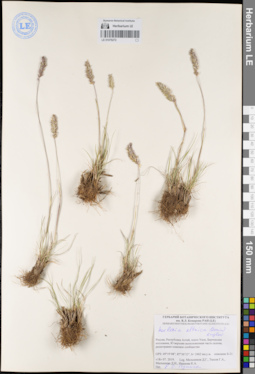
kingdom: Plantae
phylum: Tracheophyta
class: Liliopsida
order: Poales
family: Poaceae
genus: Koeleria
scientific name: Koeleria altaica
